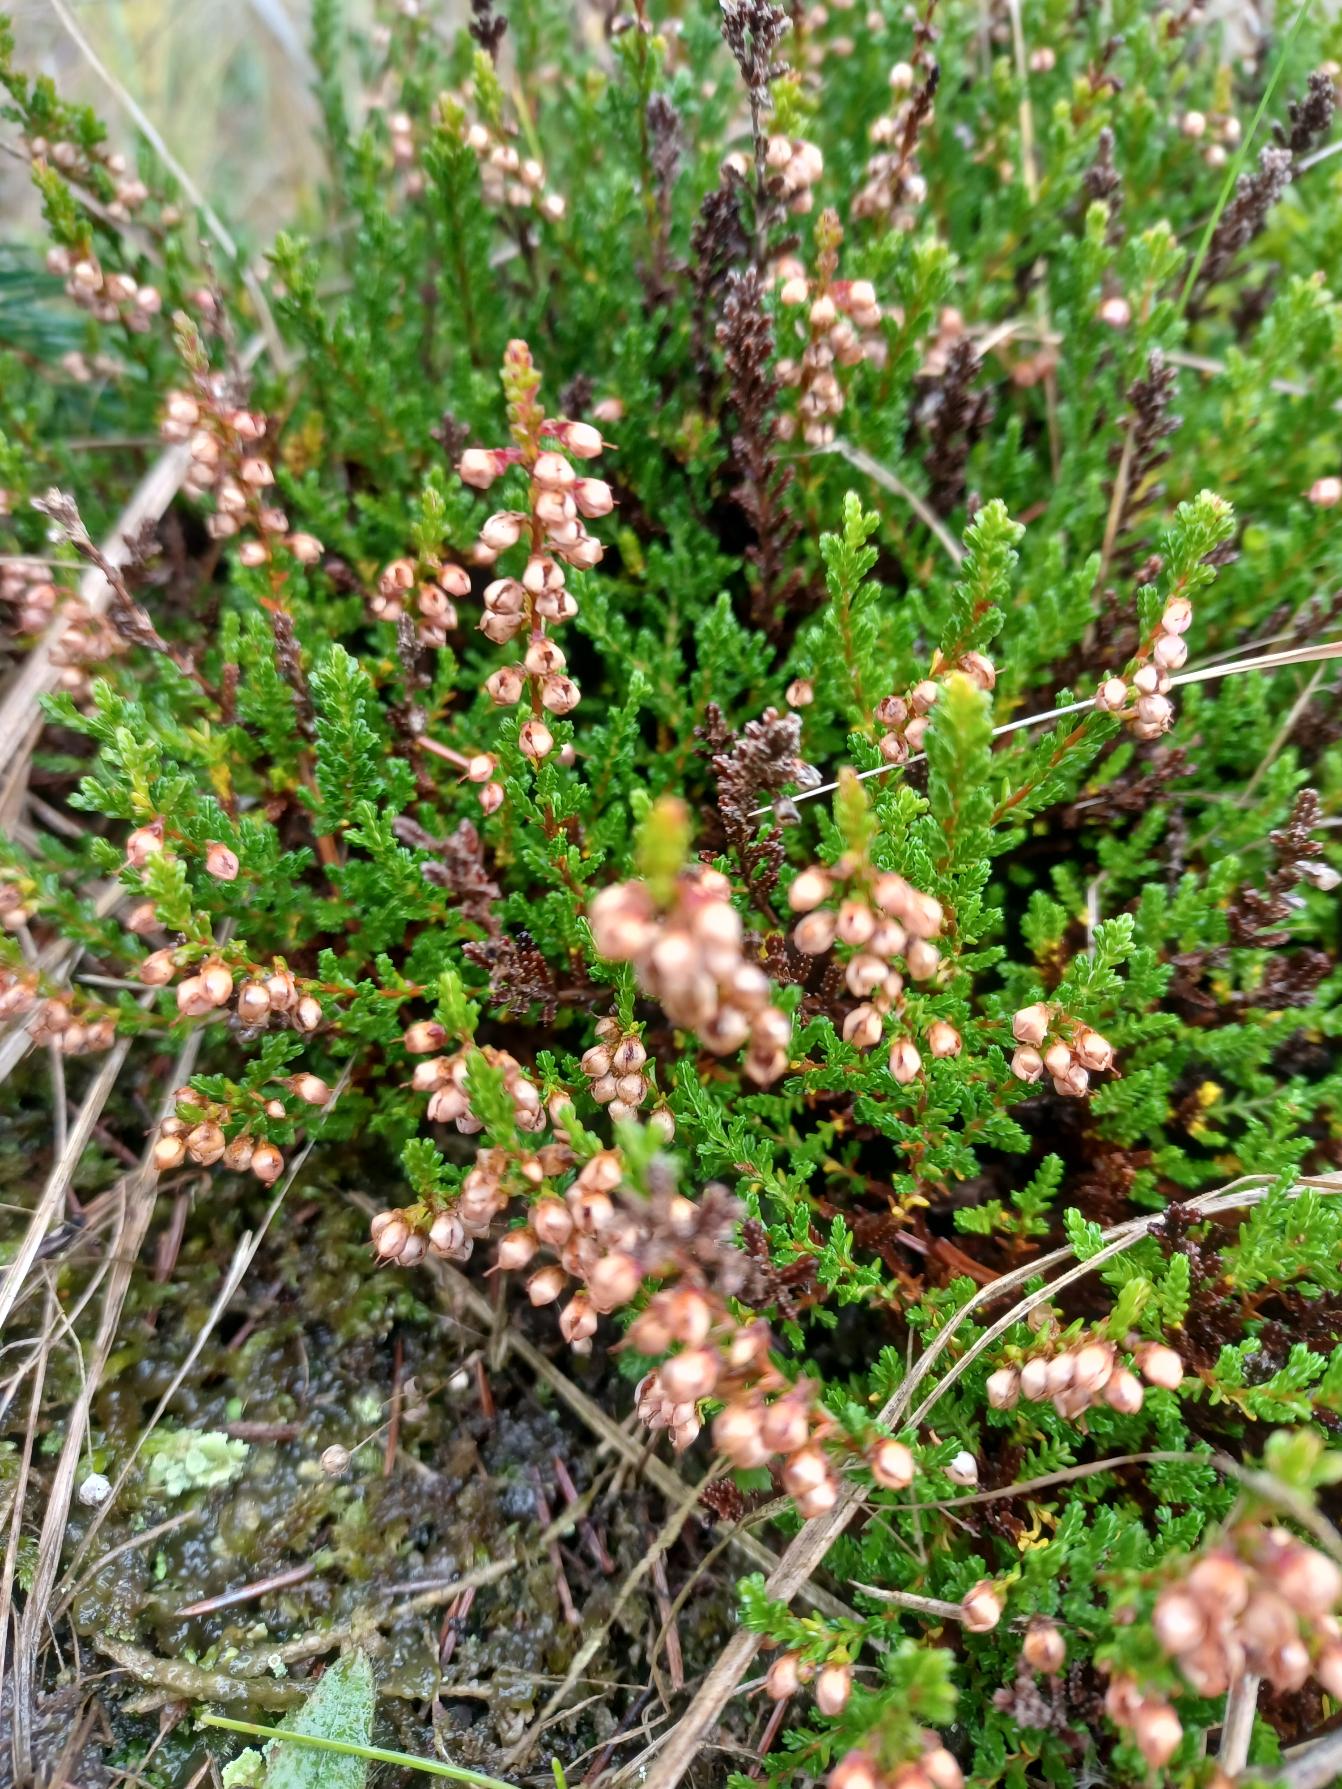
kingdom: Plantae
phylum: Tracheophyta
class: Magnoliopsida
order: Ericales
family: Ericaceae
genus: Calluna
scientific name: Calluna vulgaris
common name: Hedelyng
